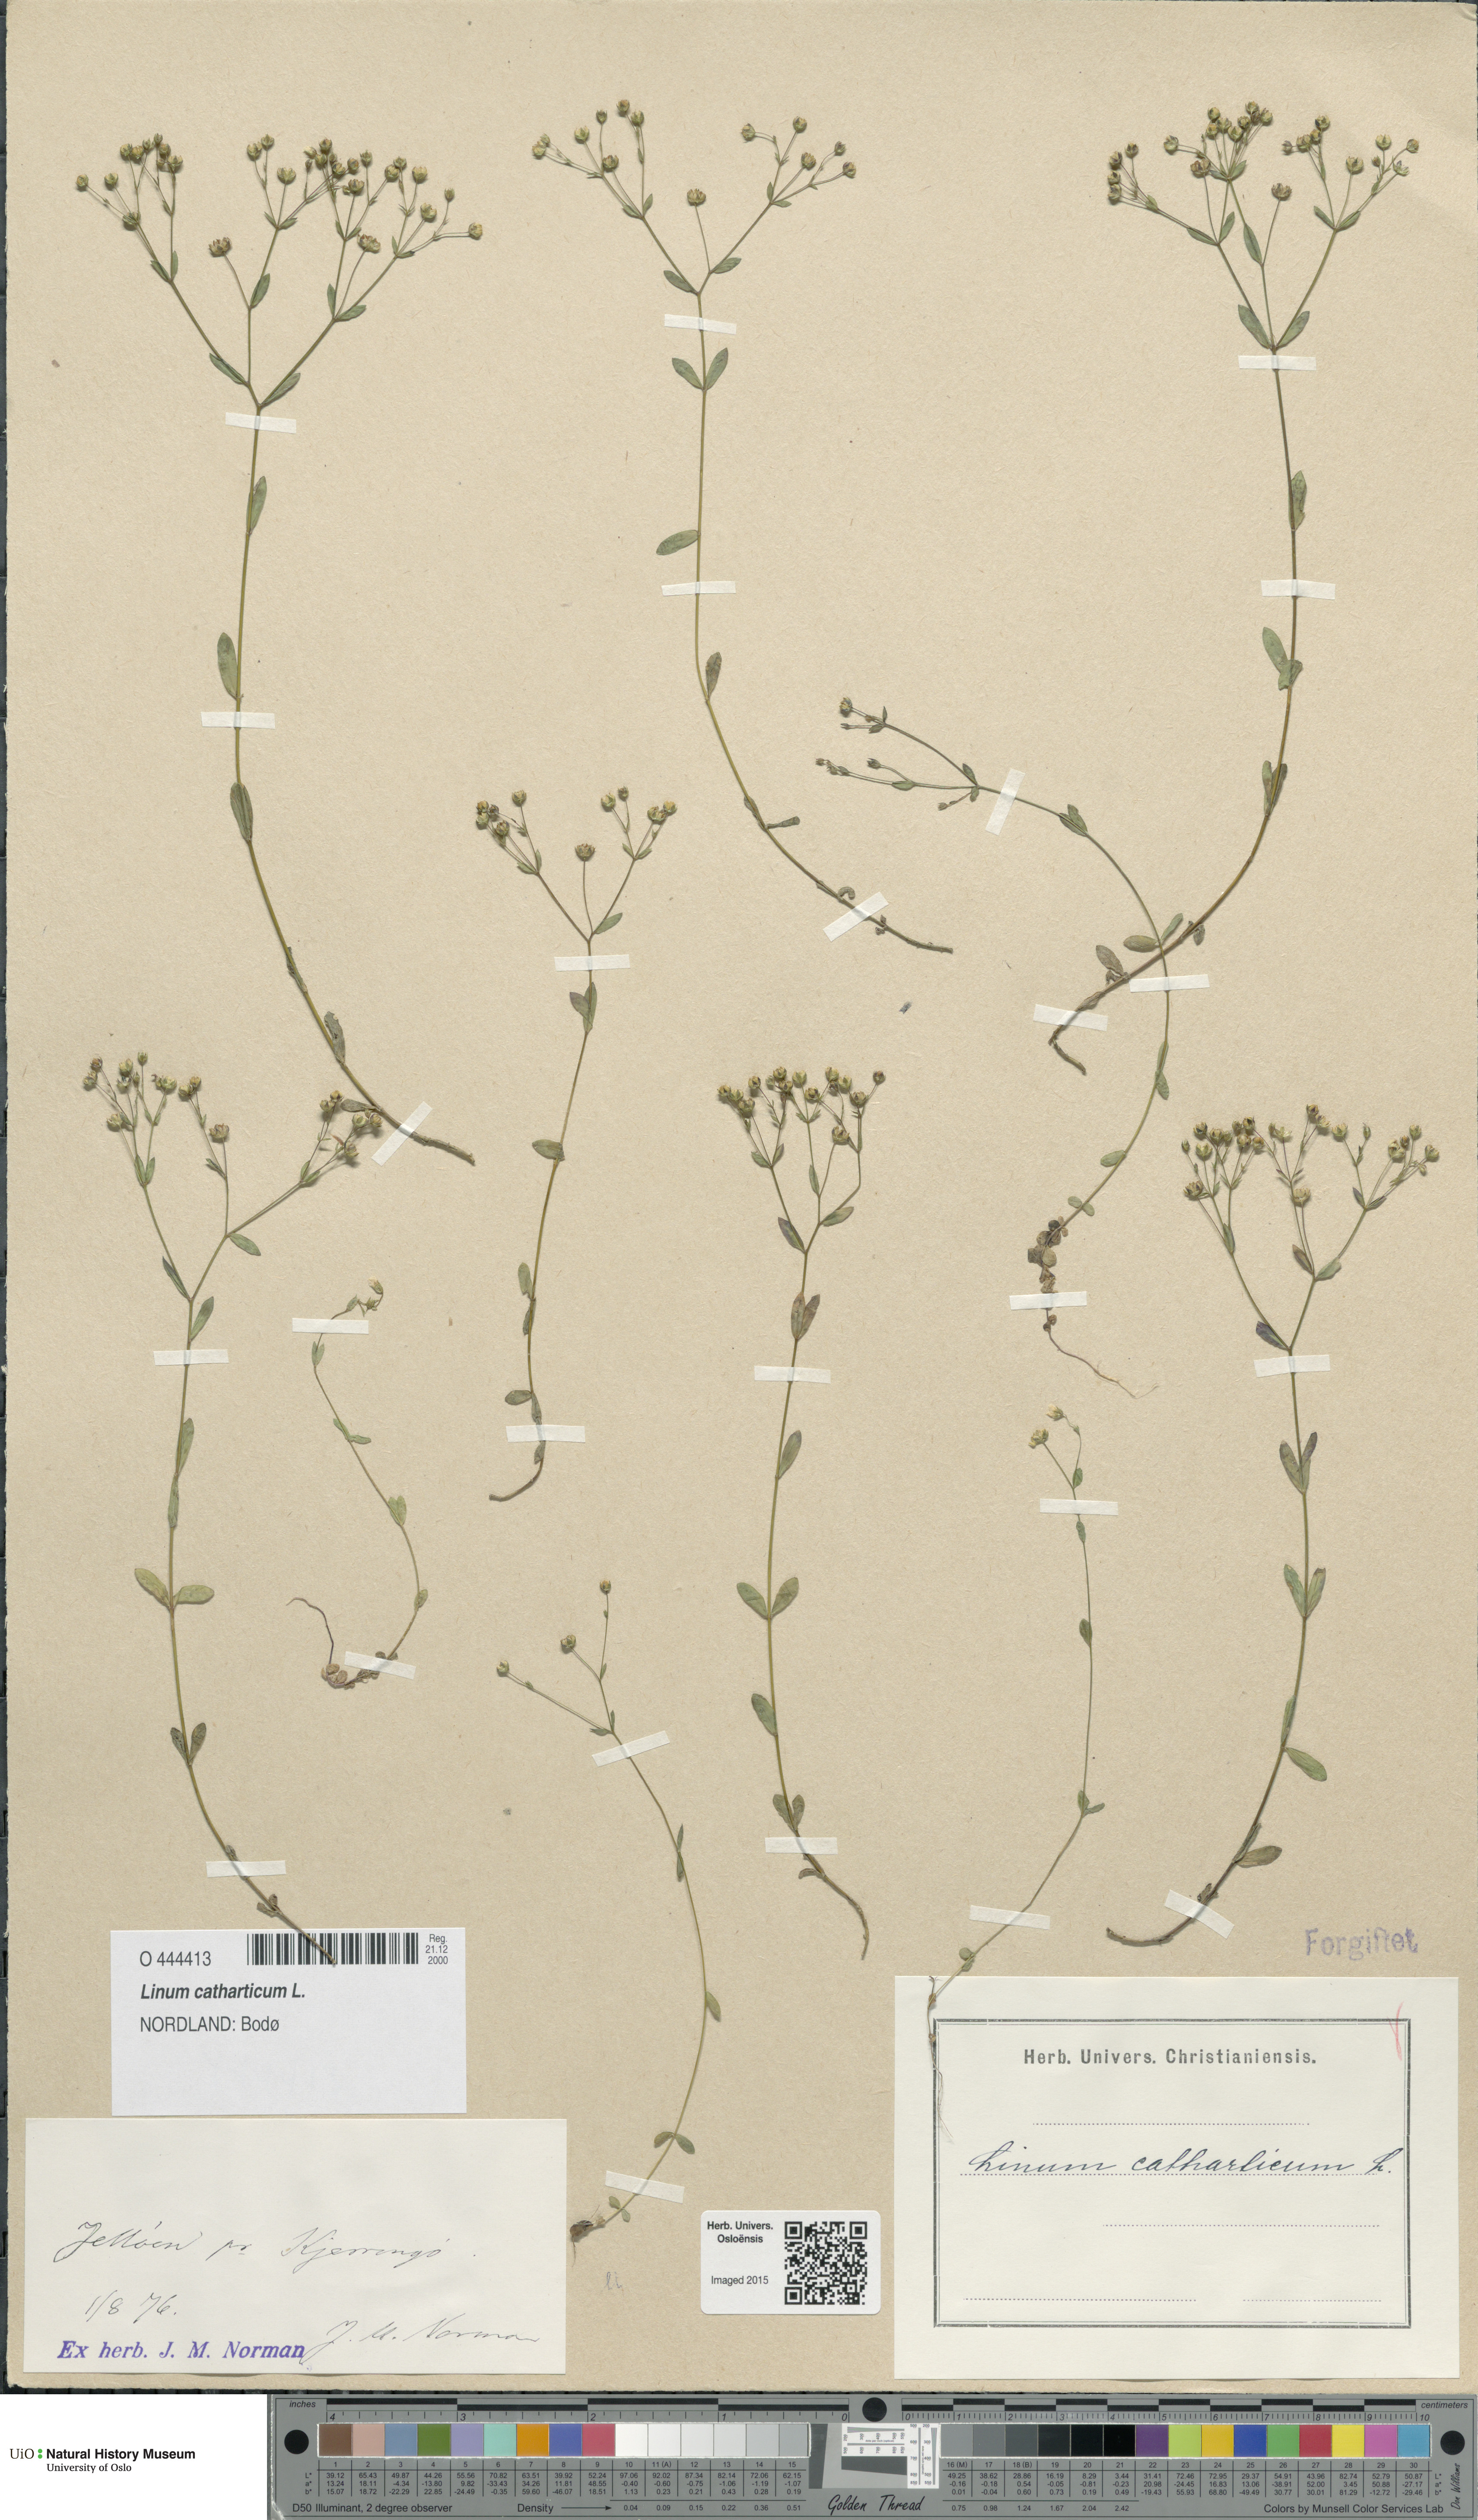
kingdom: Plantae
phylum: Tracheophyta
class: Magnoliopsida
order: Malpighiales
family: Linaceae
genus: Linum
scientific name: Linum catharticum
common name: Fairy flax
